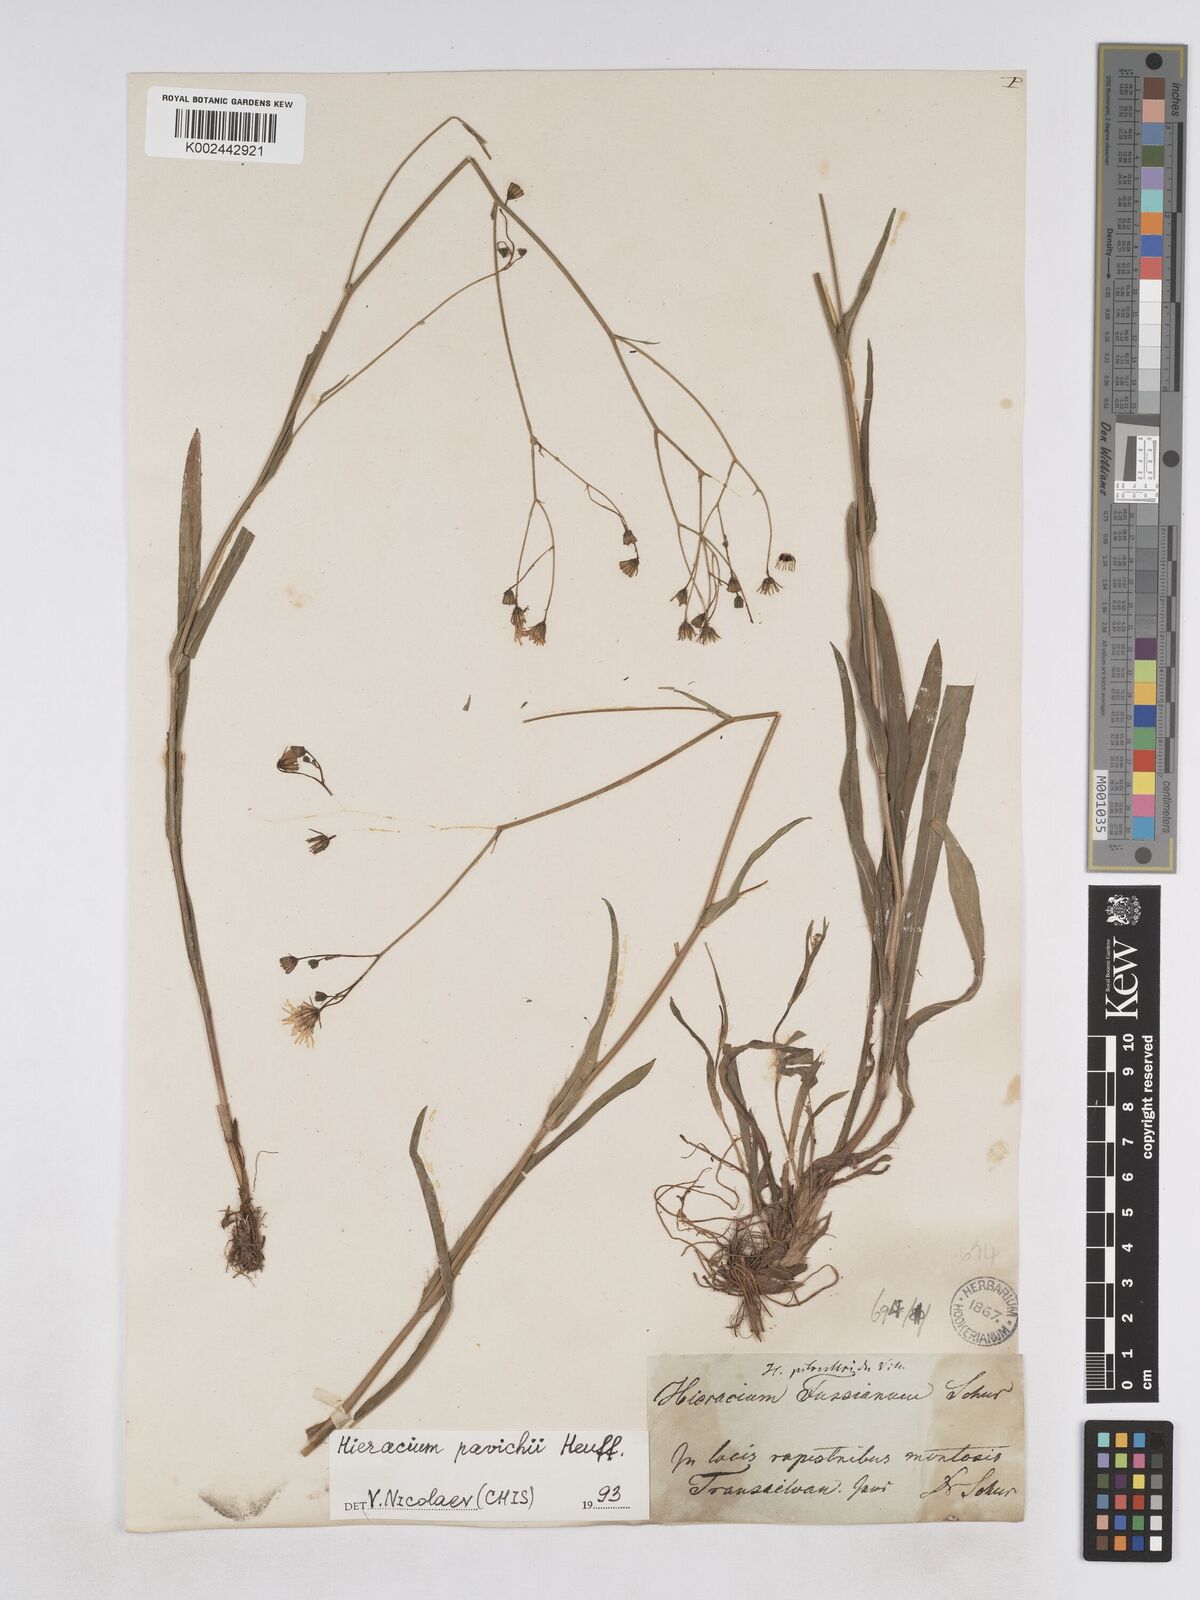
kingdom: Plantae
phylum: Tracheophyta
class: Magnoliopsida
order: Asterales
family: Asteraceae
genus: Pilosella
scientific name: Pilosella pavichii
